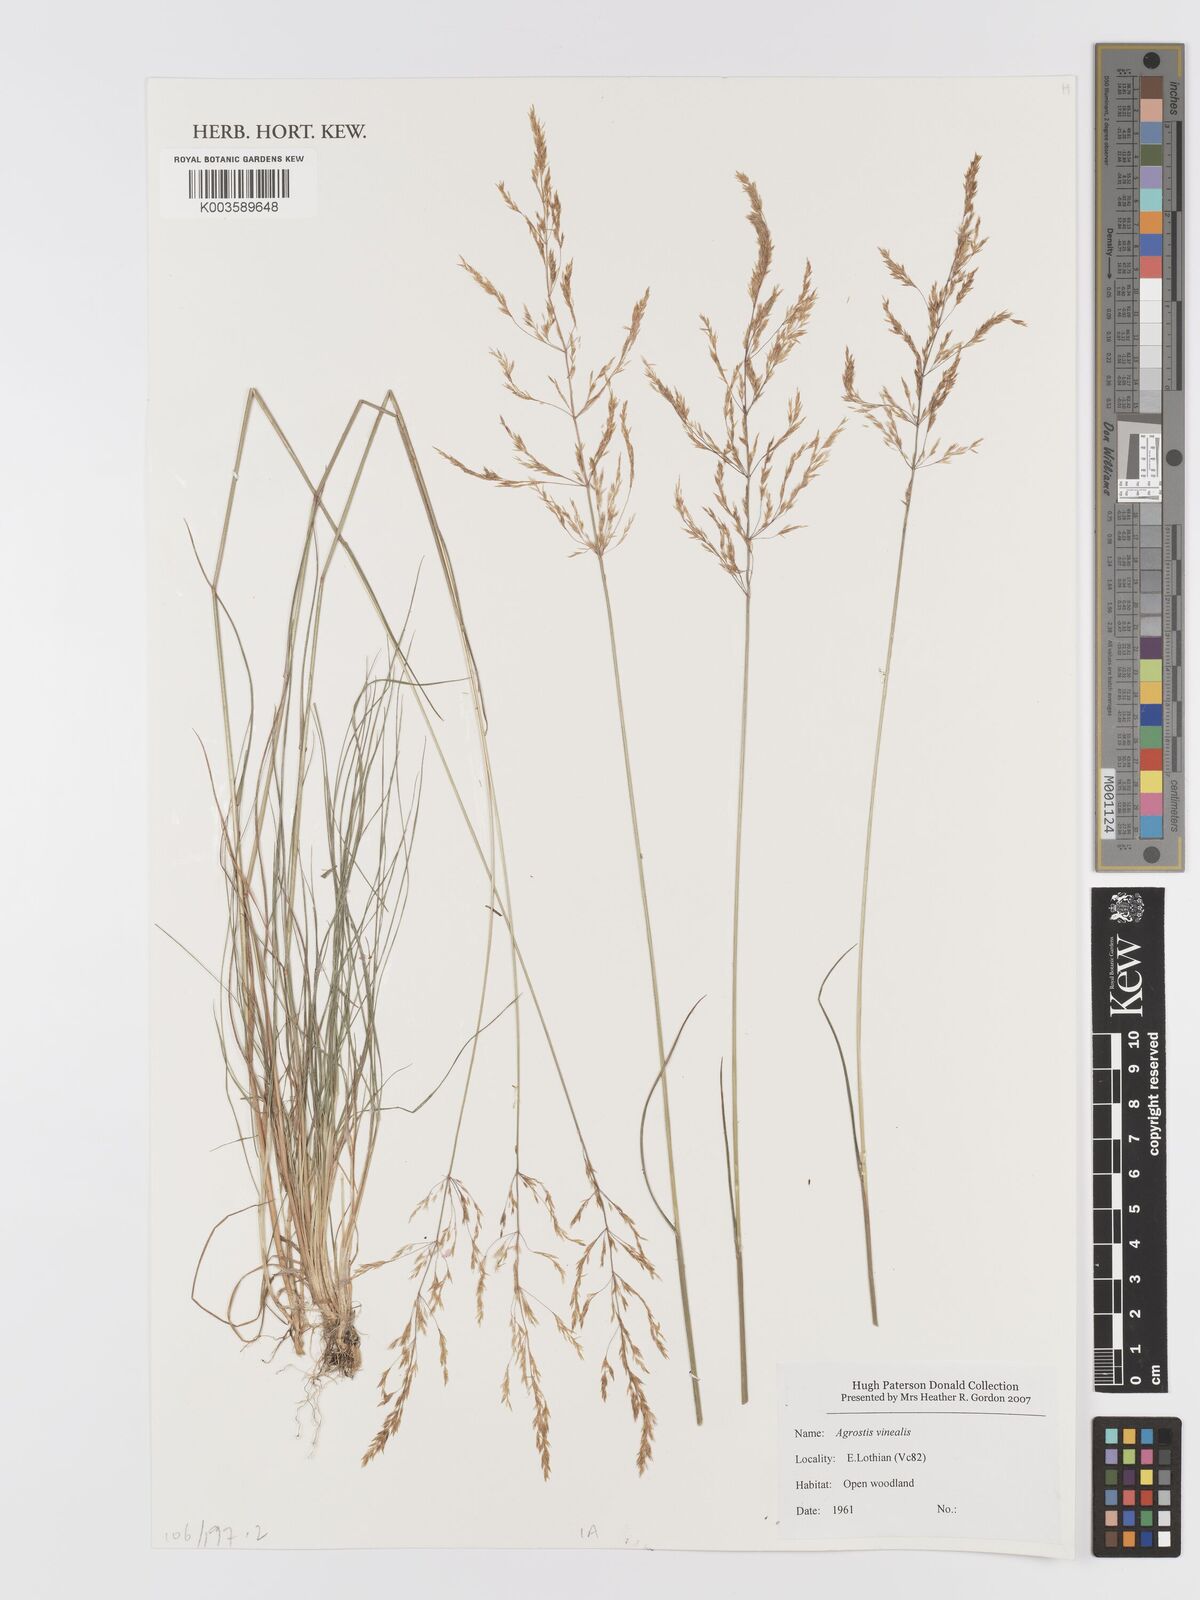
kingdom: Plantae
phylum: Tracheophyta
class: Liliopsida
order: Poales
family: Poaceae
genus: Agrostis
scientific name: Agrostis
